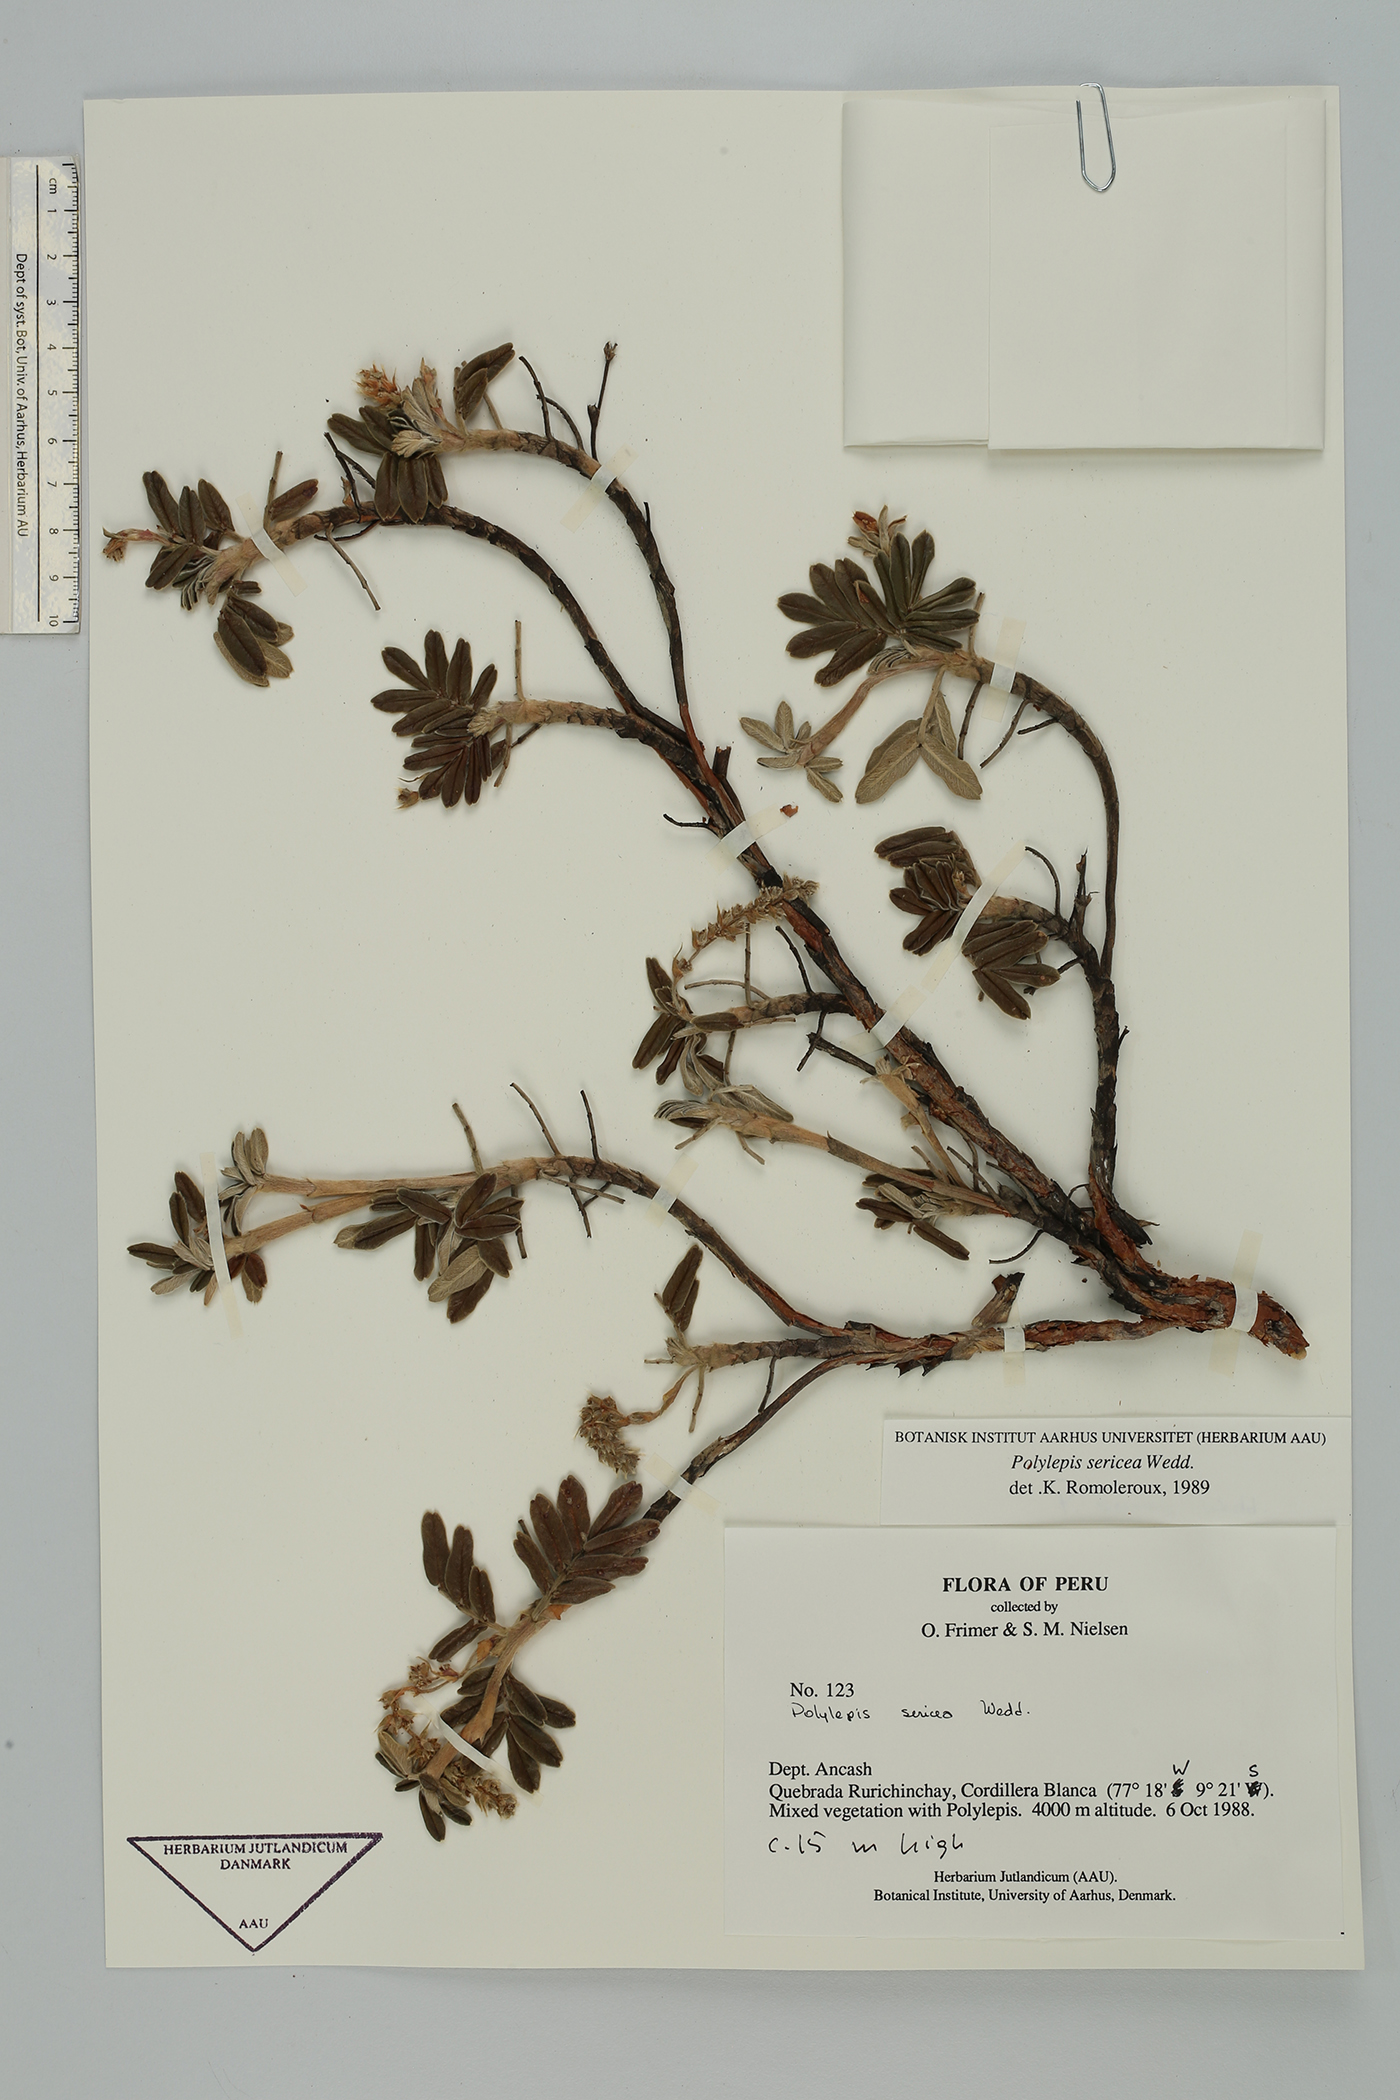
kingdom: Plantae
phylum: Tracheophyta
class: Magnoliopsida
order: Rosales
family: Rosaceae
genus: Polylepis
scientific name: Polylepis sericea
